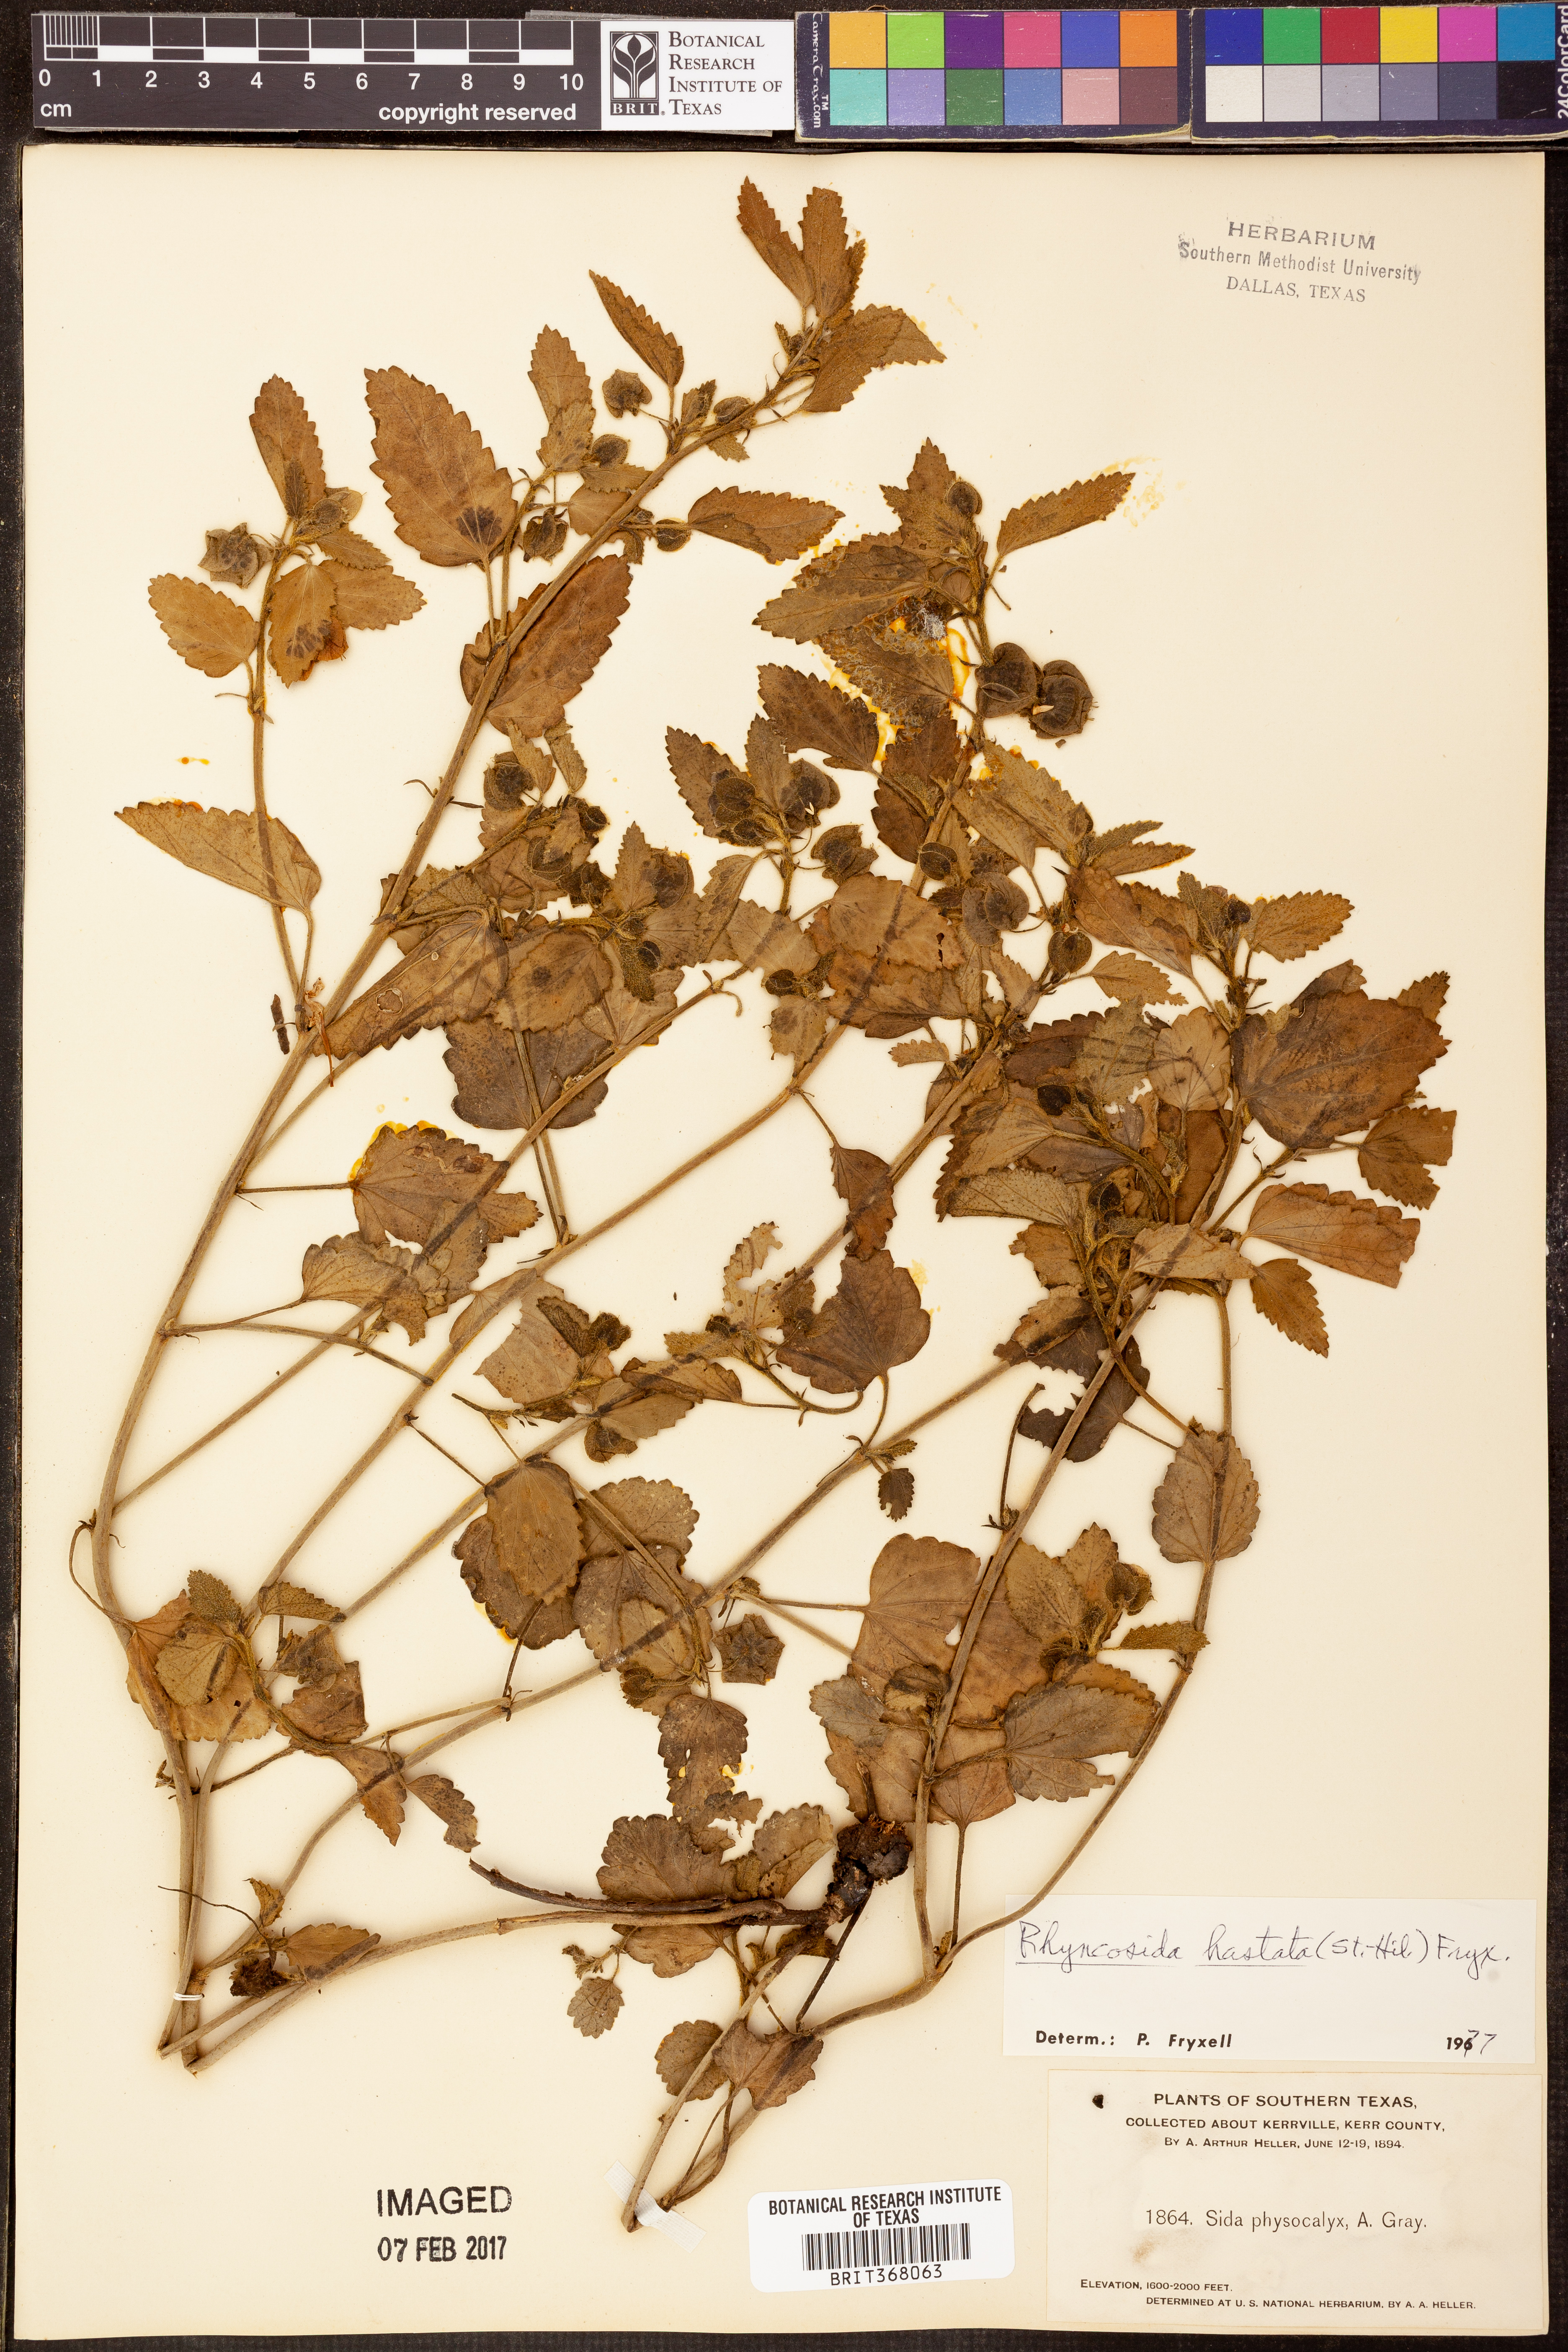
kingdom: Plantae
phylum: Tracheophyta
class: Magnoliopsida
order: Malvales
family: Malvaceae
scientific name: Malvaceae
